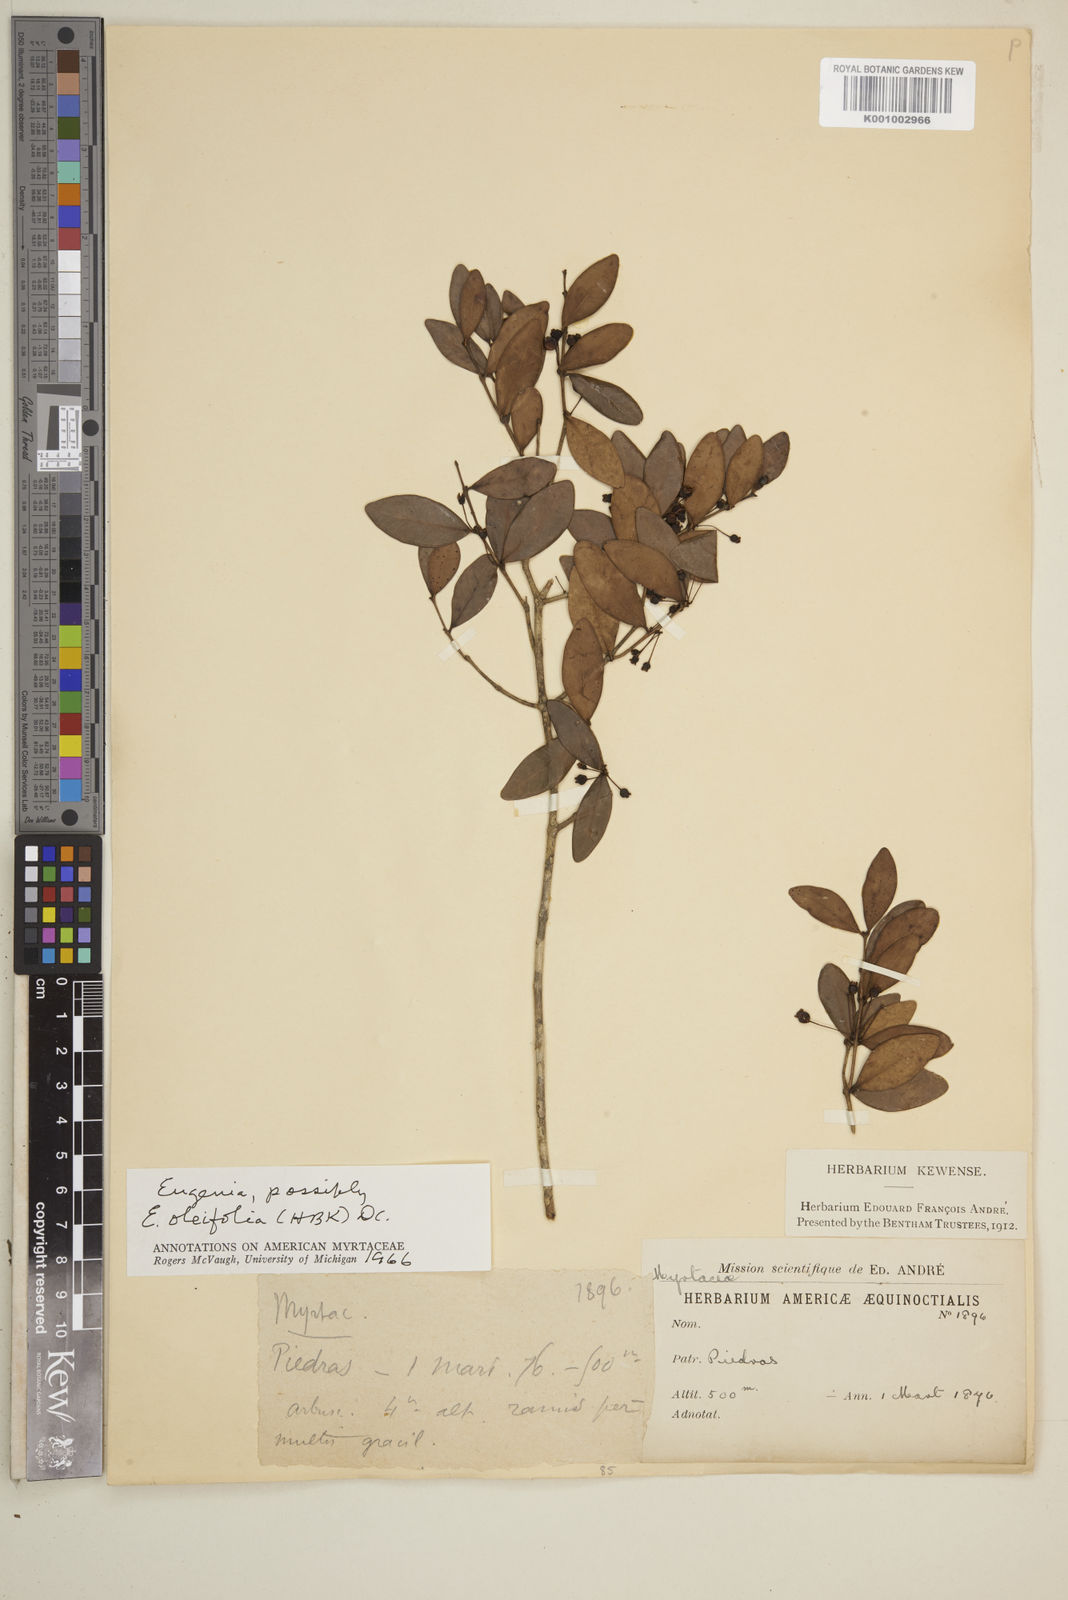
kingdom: Plantae
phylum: Tracheophyta
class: Magnoliopsida
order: Myrtales
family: Myrtaceae
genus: Eugenia
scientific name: Eugenia punicifolia
